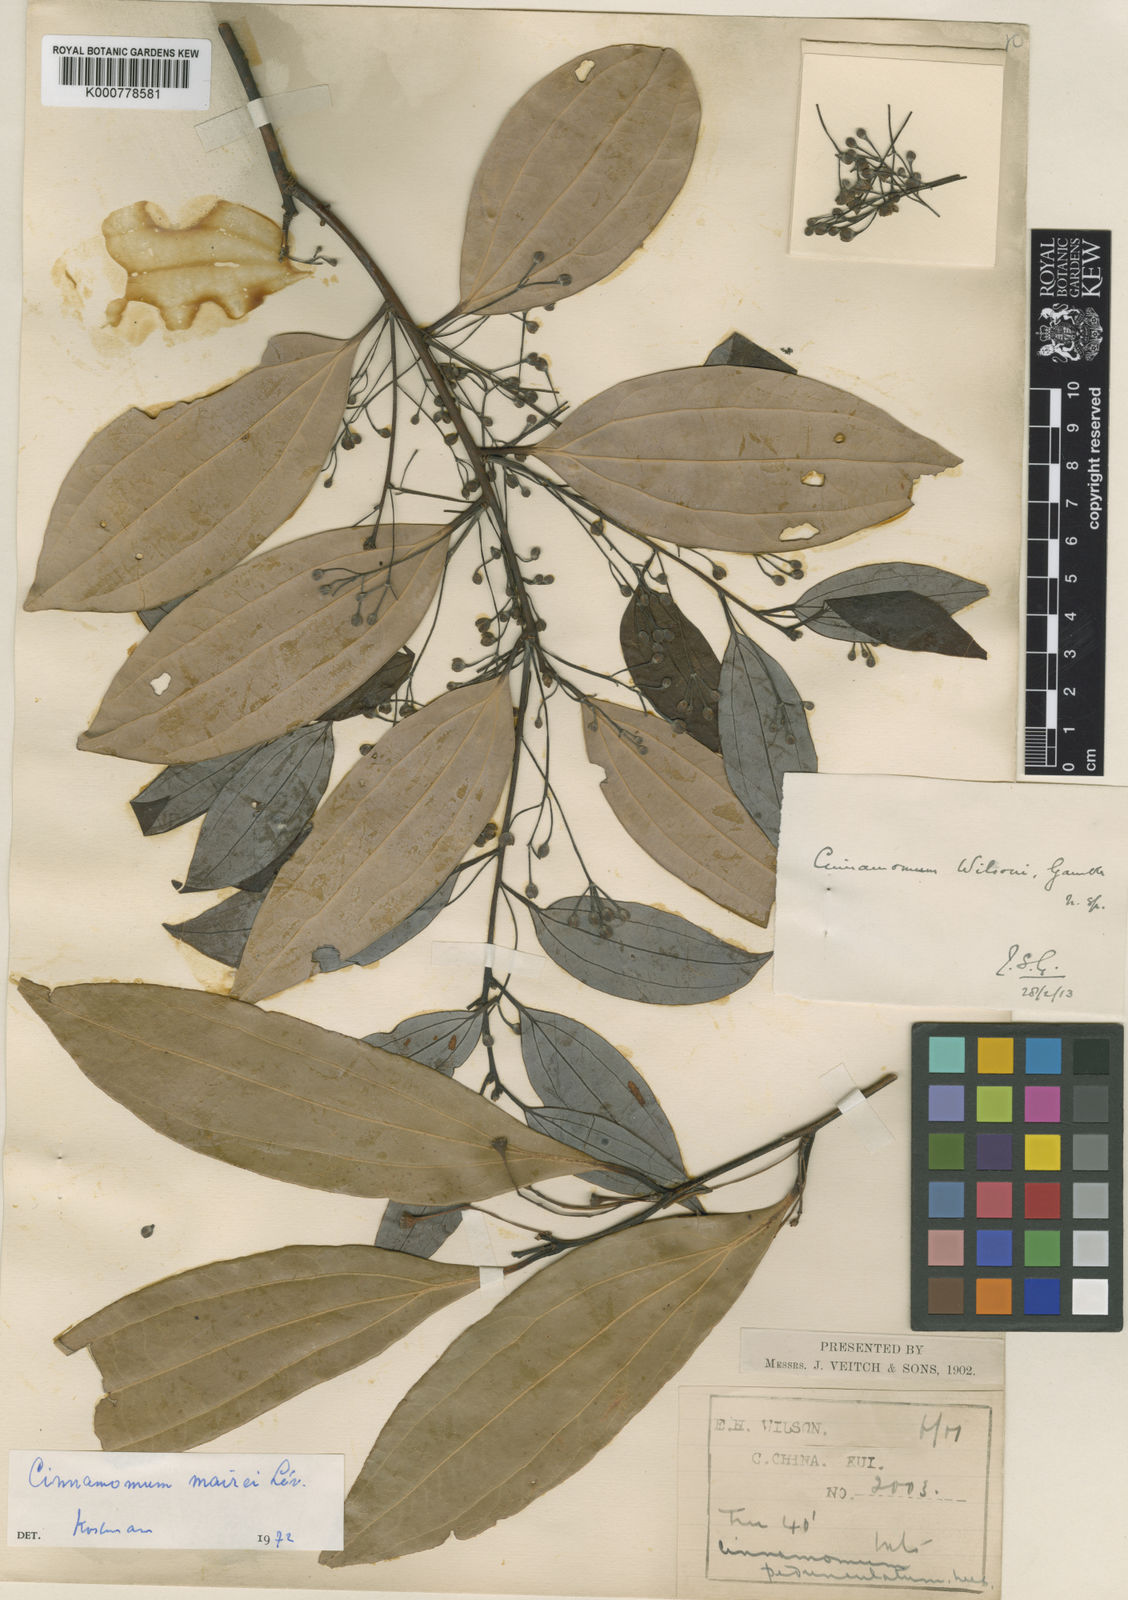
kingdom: Plantae
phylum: Tracheophyta
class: Magnoliopsida
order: Laurales
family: Lauraceae
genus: Cinnamomum
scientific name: Cinnamomum
